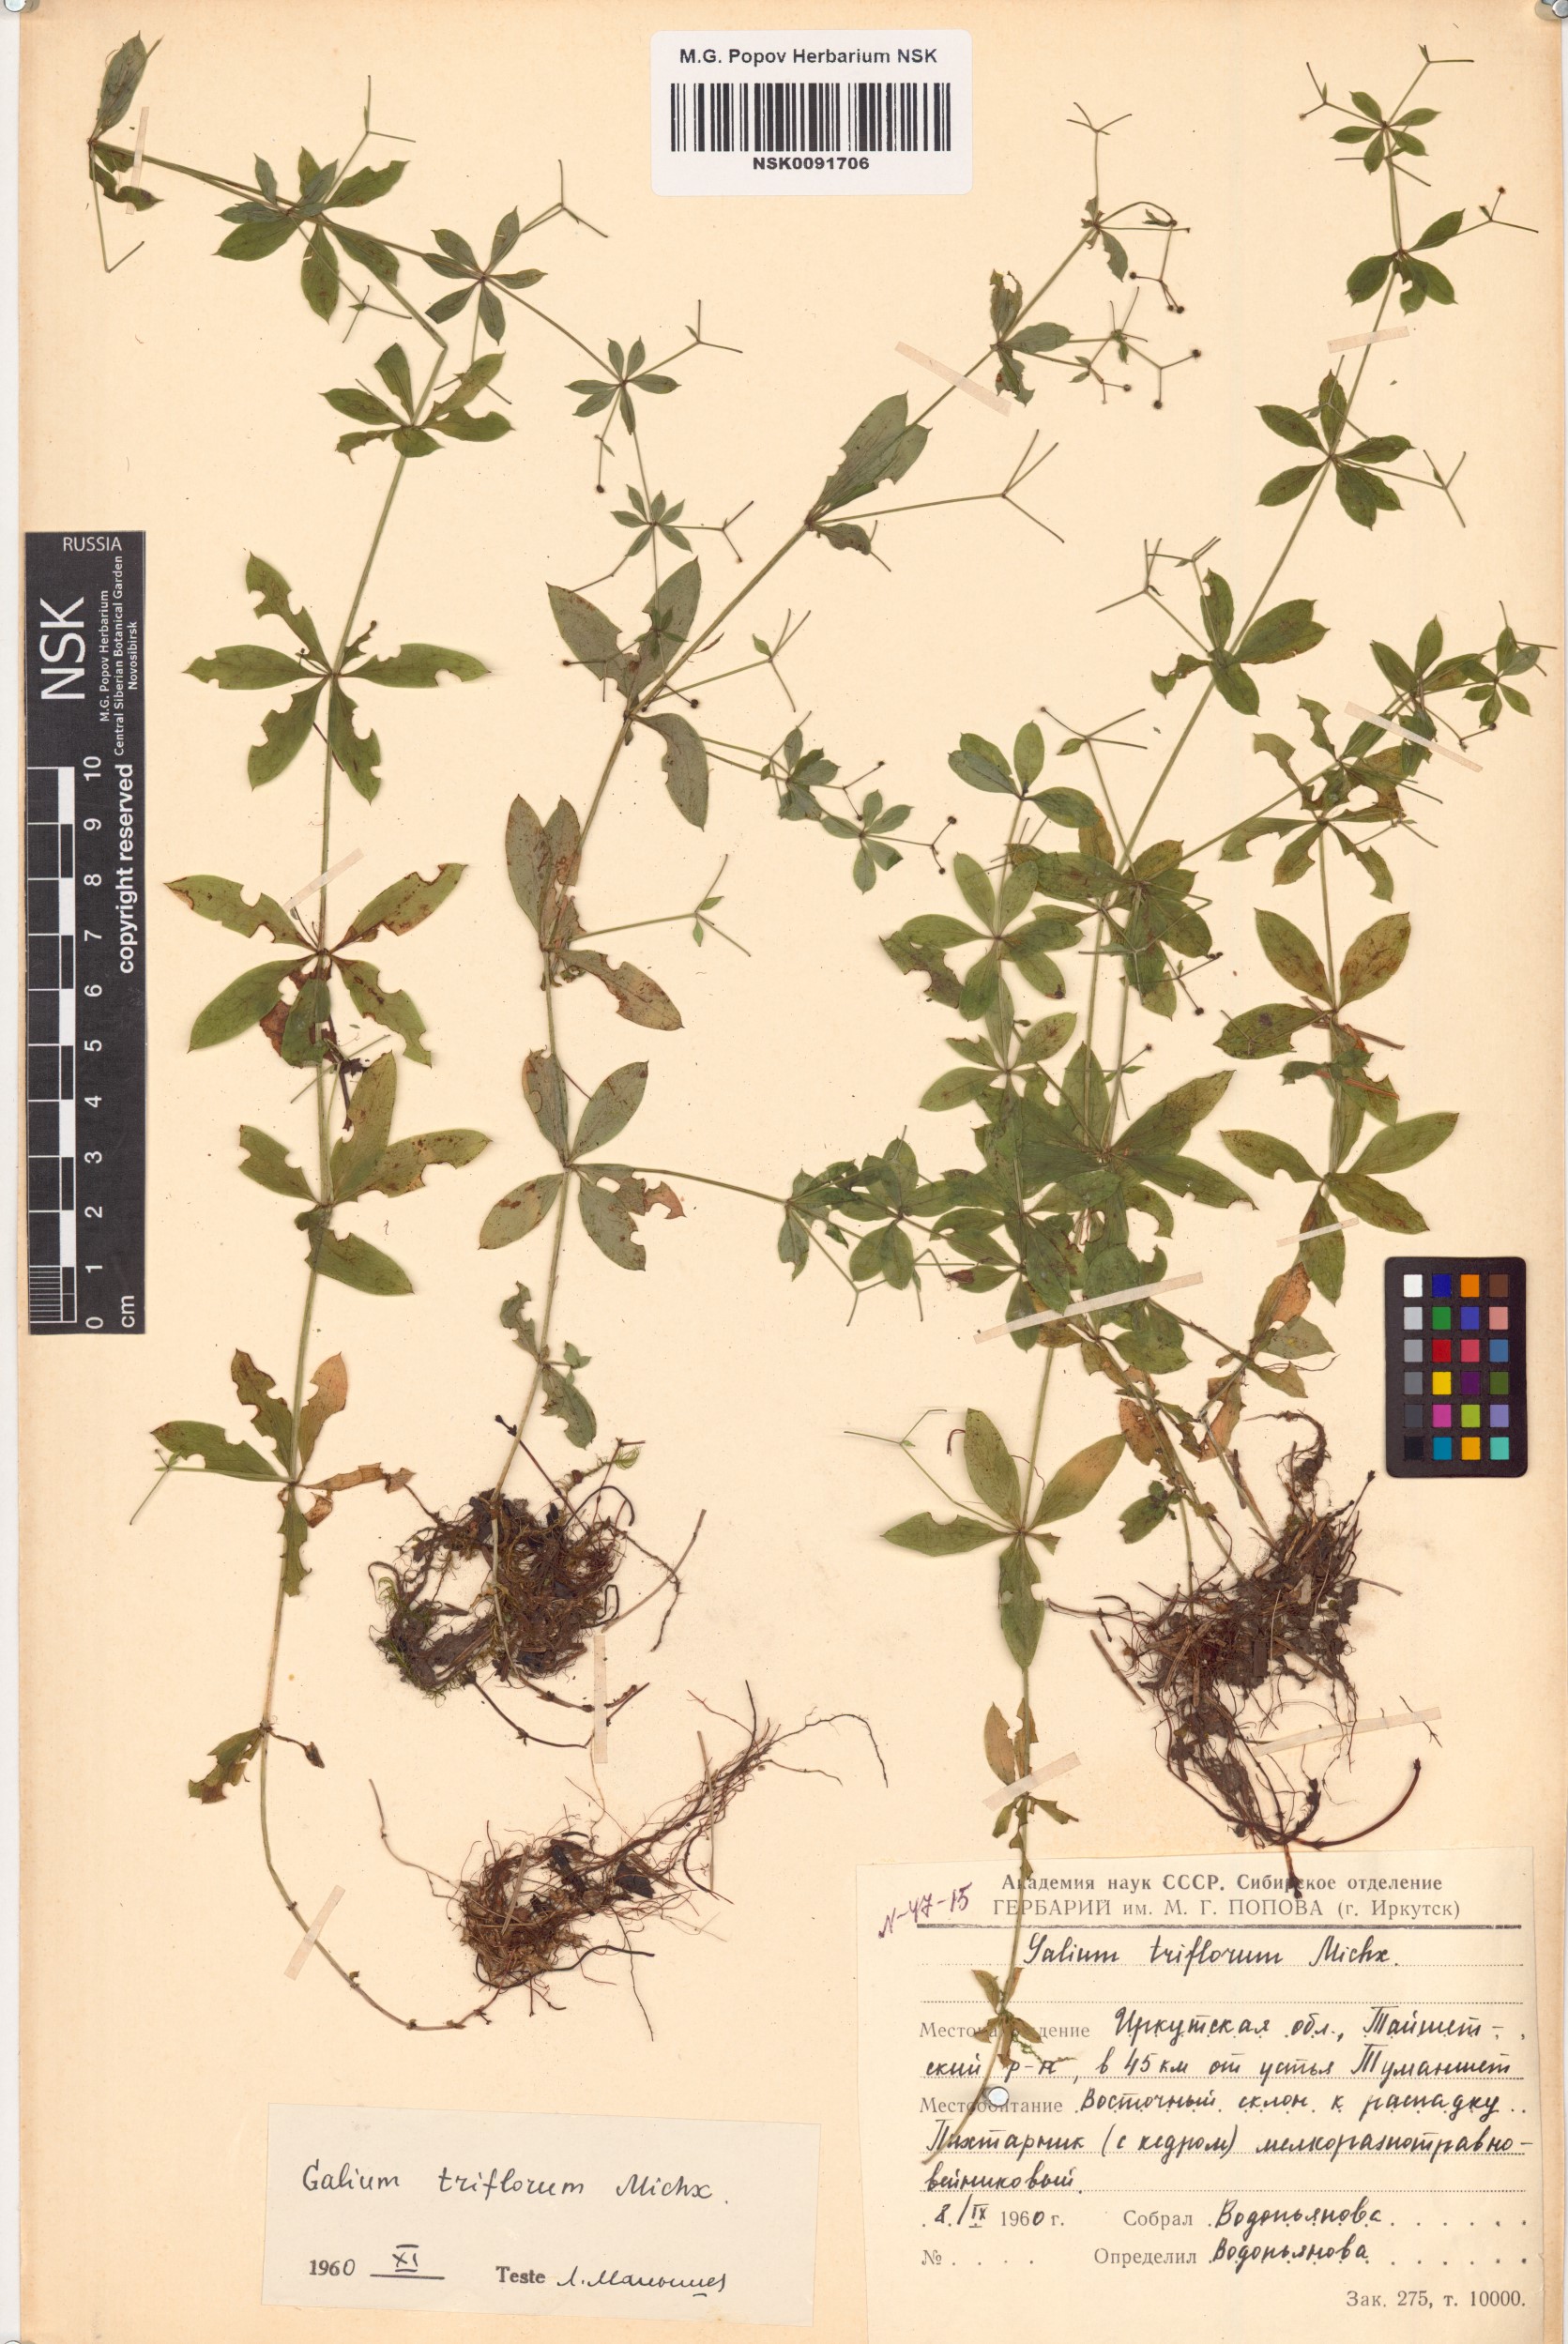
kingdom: Plantae
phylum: Tracheophyta
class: Magnoliopsida
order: Gentianales
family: Rubiaceae
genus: Galium
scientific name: Galium triflorum
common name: Fragrant bedstraw
